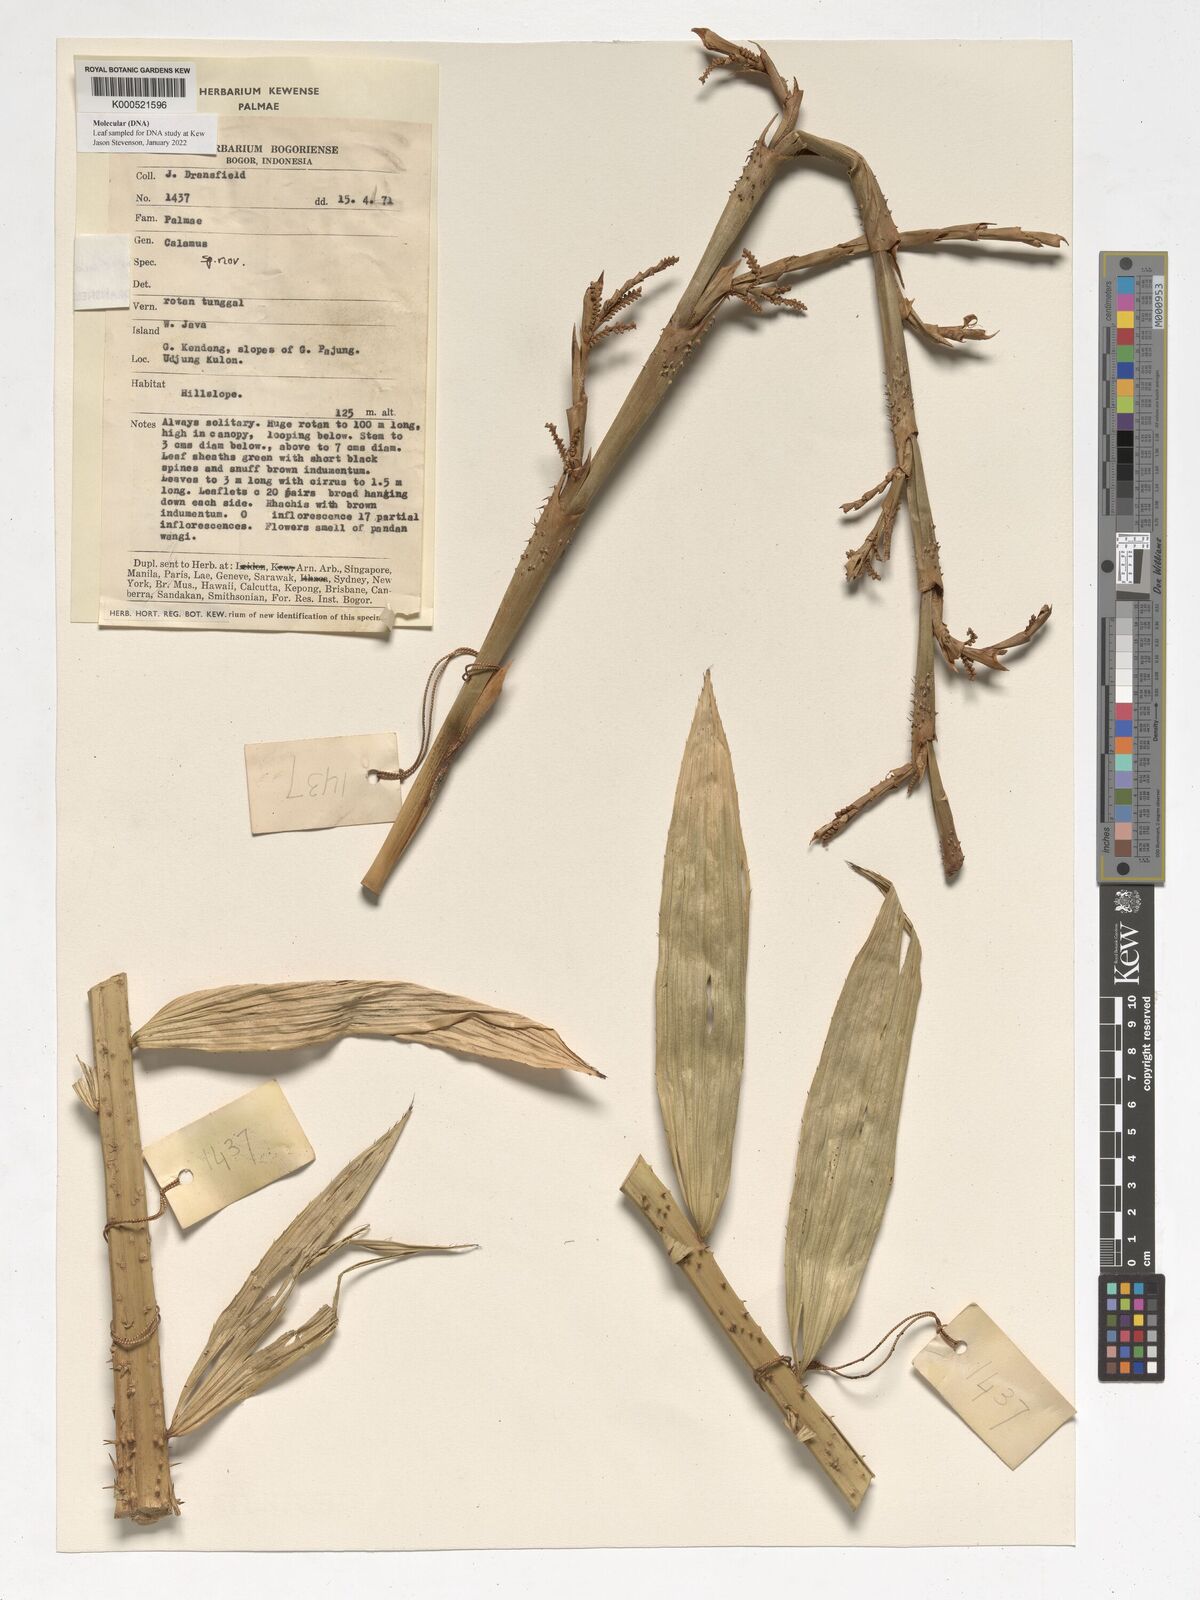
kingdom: Plantae
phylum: Tracheophyta
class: Liliopsida
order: Arecales
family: Arecaceae
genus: Calamus
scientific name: Calamus occidentalis
